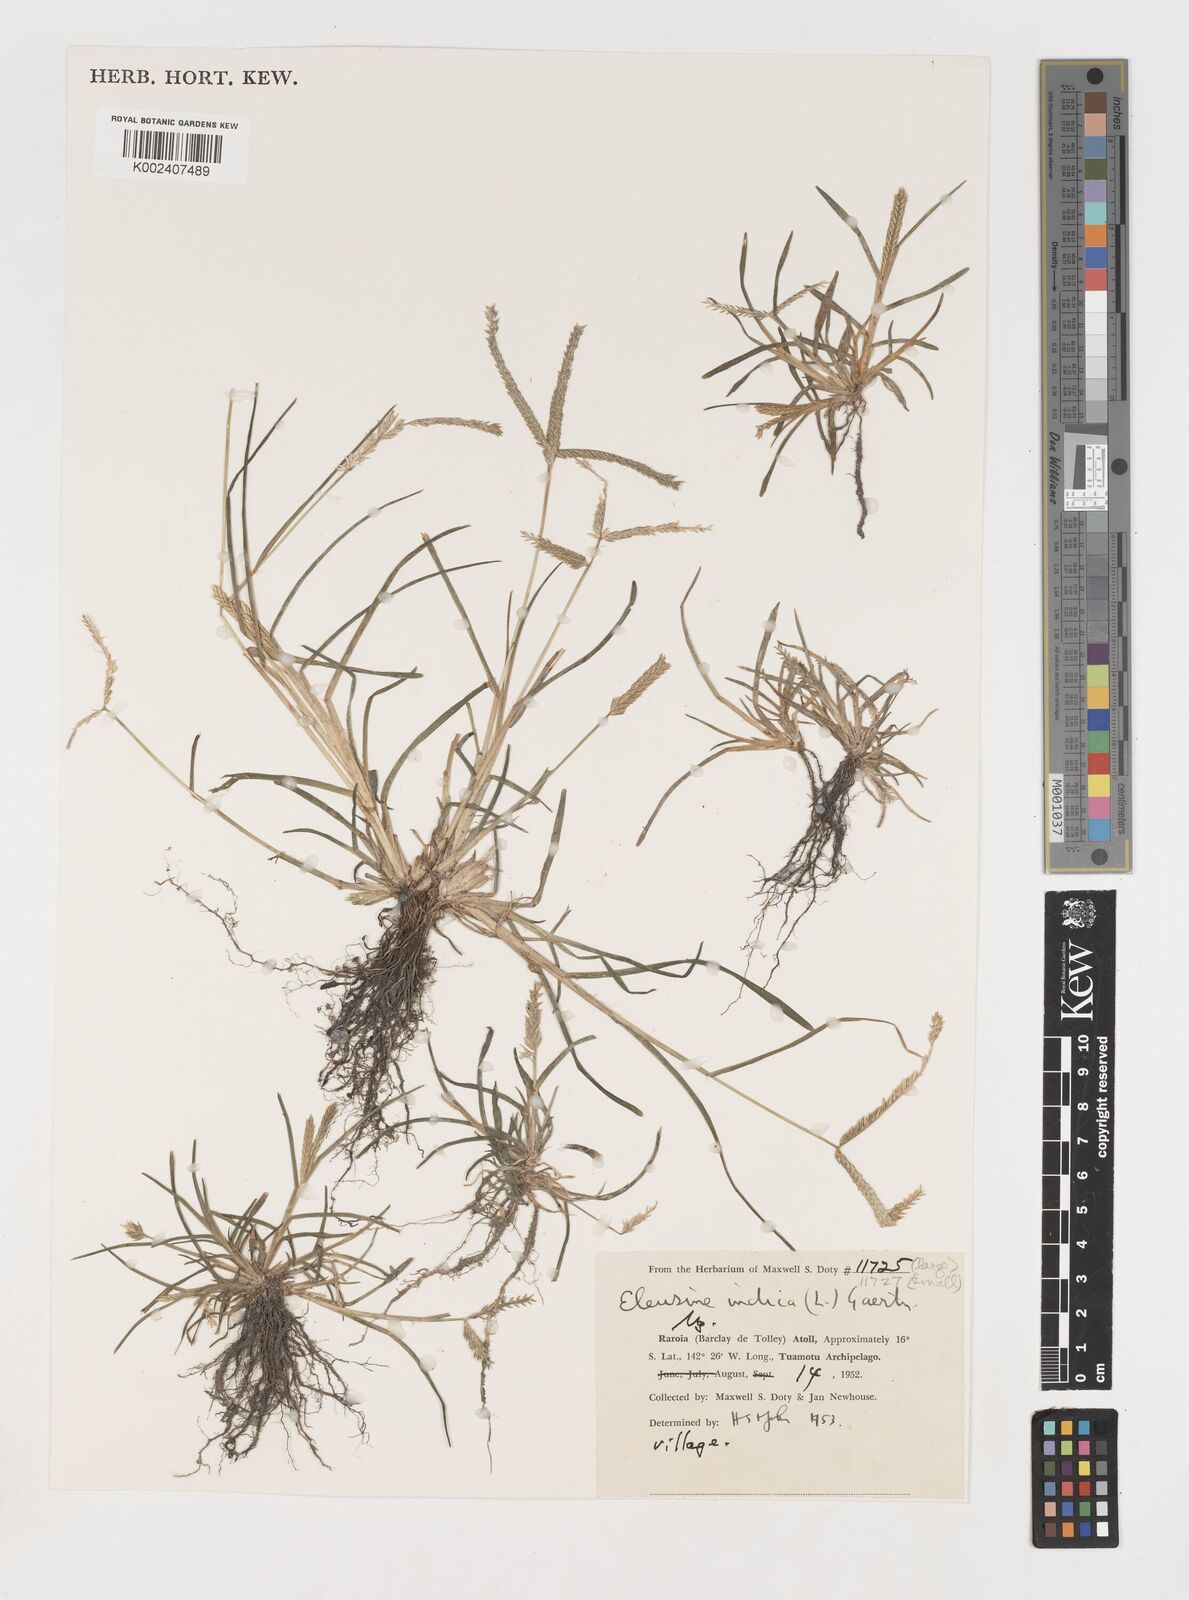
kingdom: Plantae
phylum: Tracheophyta
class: Liliopsida
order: Poales
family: Poaceae
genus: Eleusine
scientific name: Eleusine indica
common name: Yard-grass
